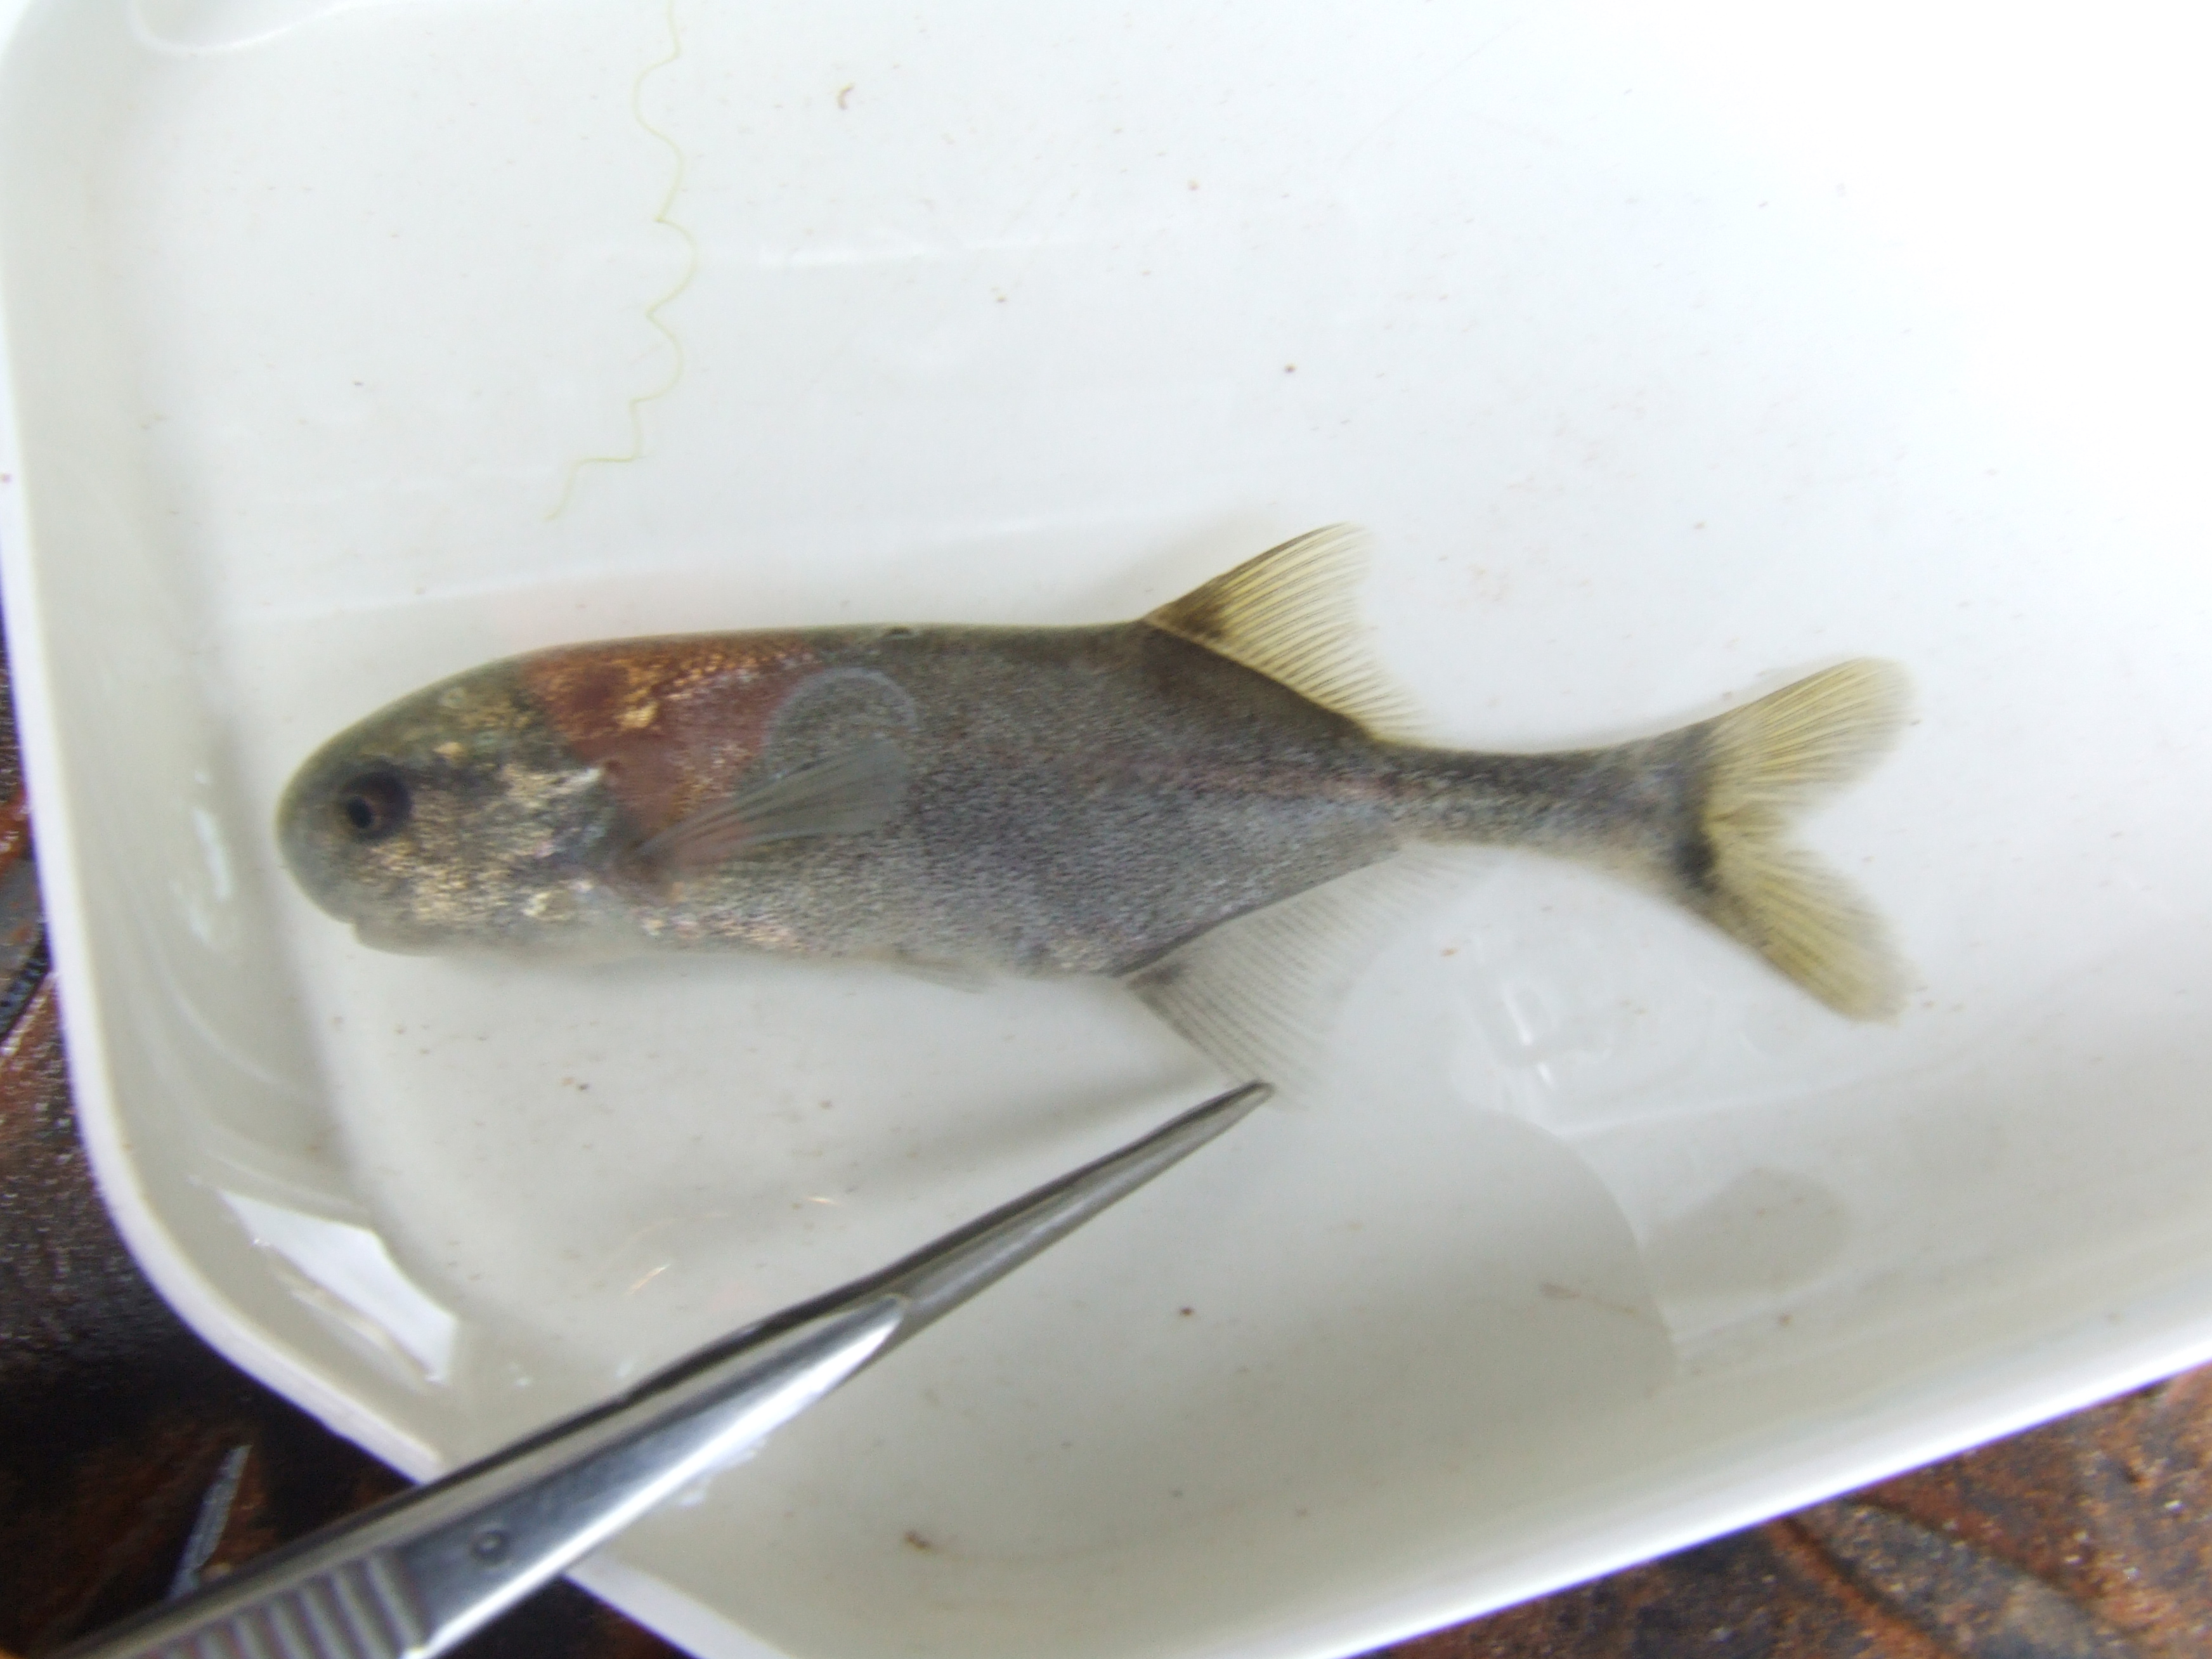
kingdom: Animalia
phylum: Chordata
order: Osteoglossiformes
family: Mormyridae
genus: Petrocephalus
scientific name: Petrocephalus catostoma
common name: Churchill
